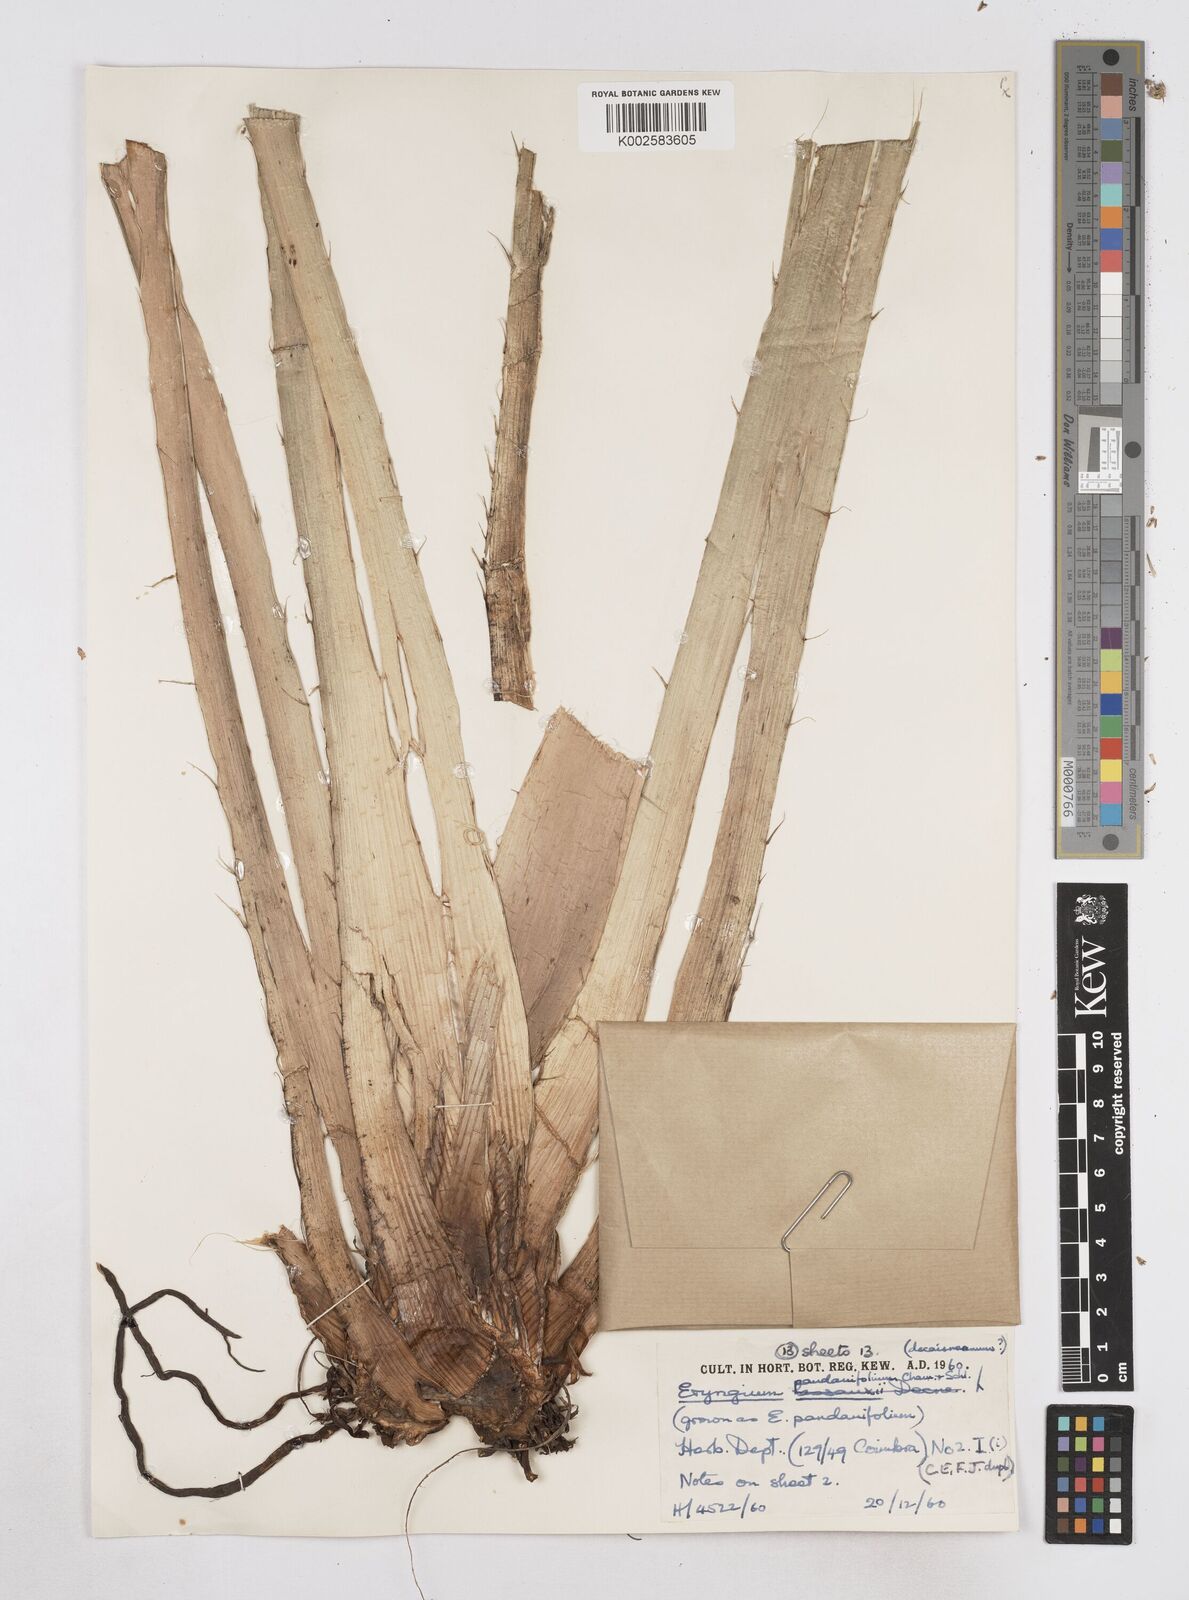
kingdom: Plantae
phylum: Tracheophyta
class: Magnoliopsida
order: Apiales
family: Apiaceae
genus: Eryngium
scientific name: Eryngium pandanifolium
